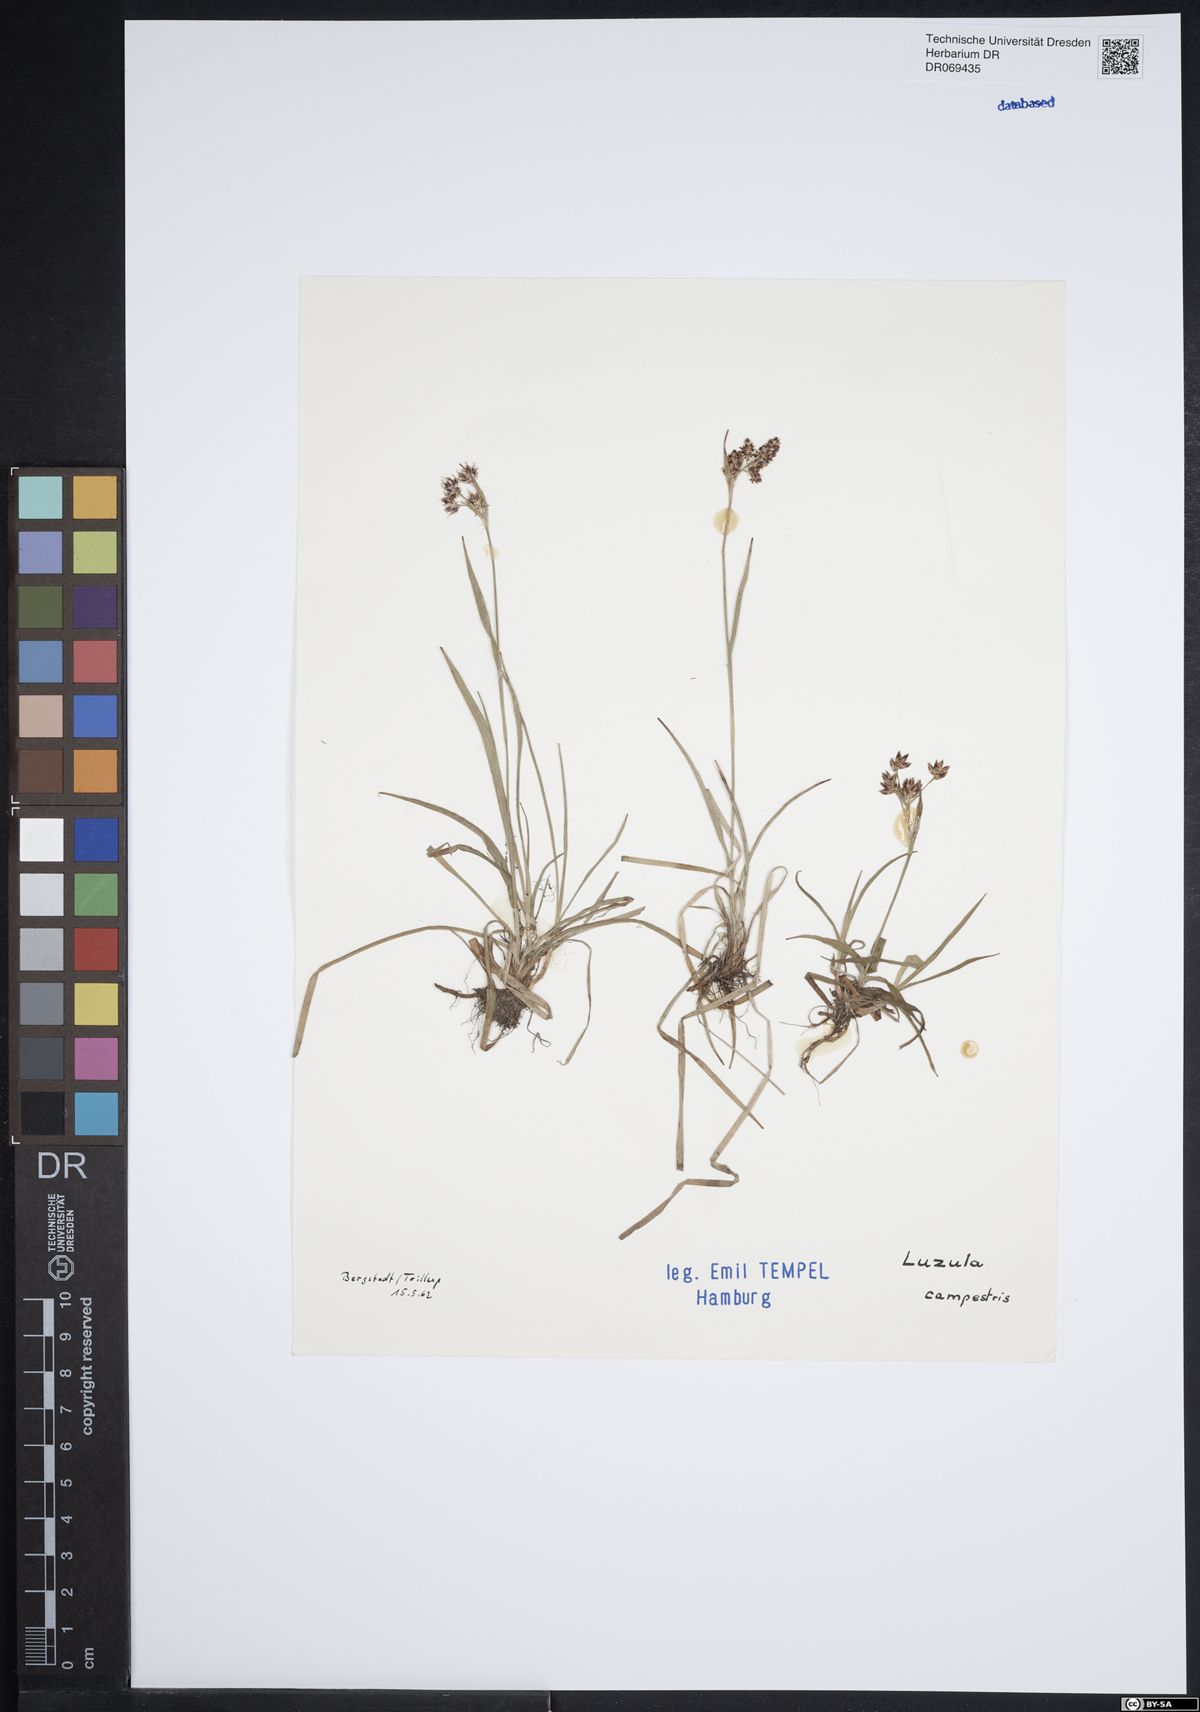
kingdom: Plantae
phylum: Tracheophyta
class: Liliopsida
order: Poales
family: Juncaceae
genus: Luzula
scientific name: Luzula campestris
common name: Field wood-rush
